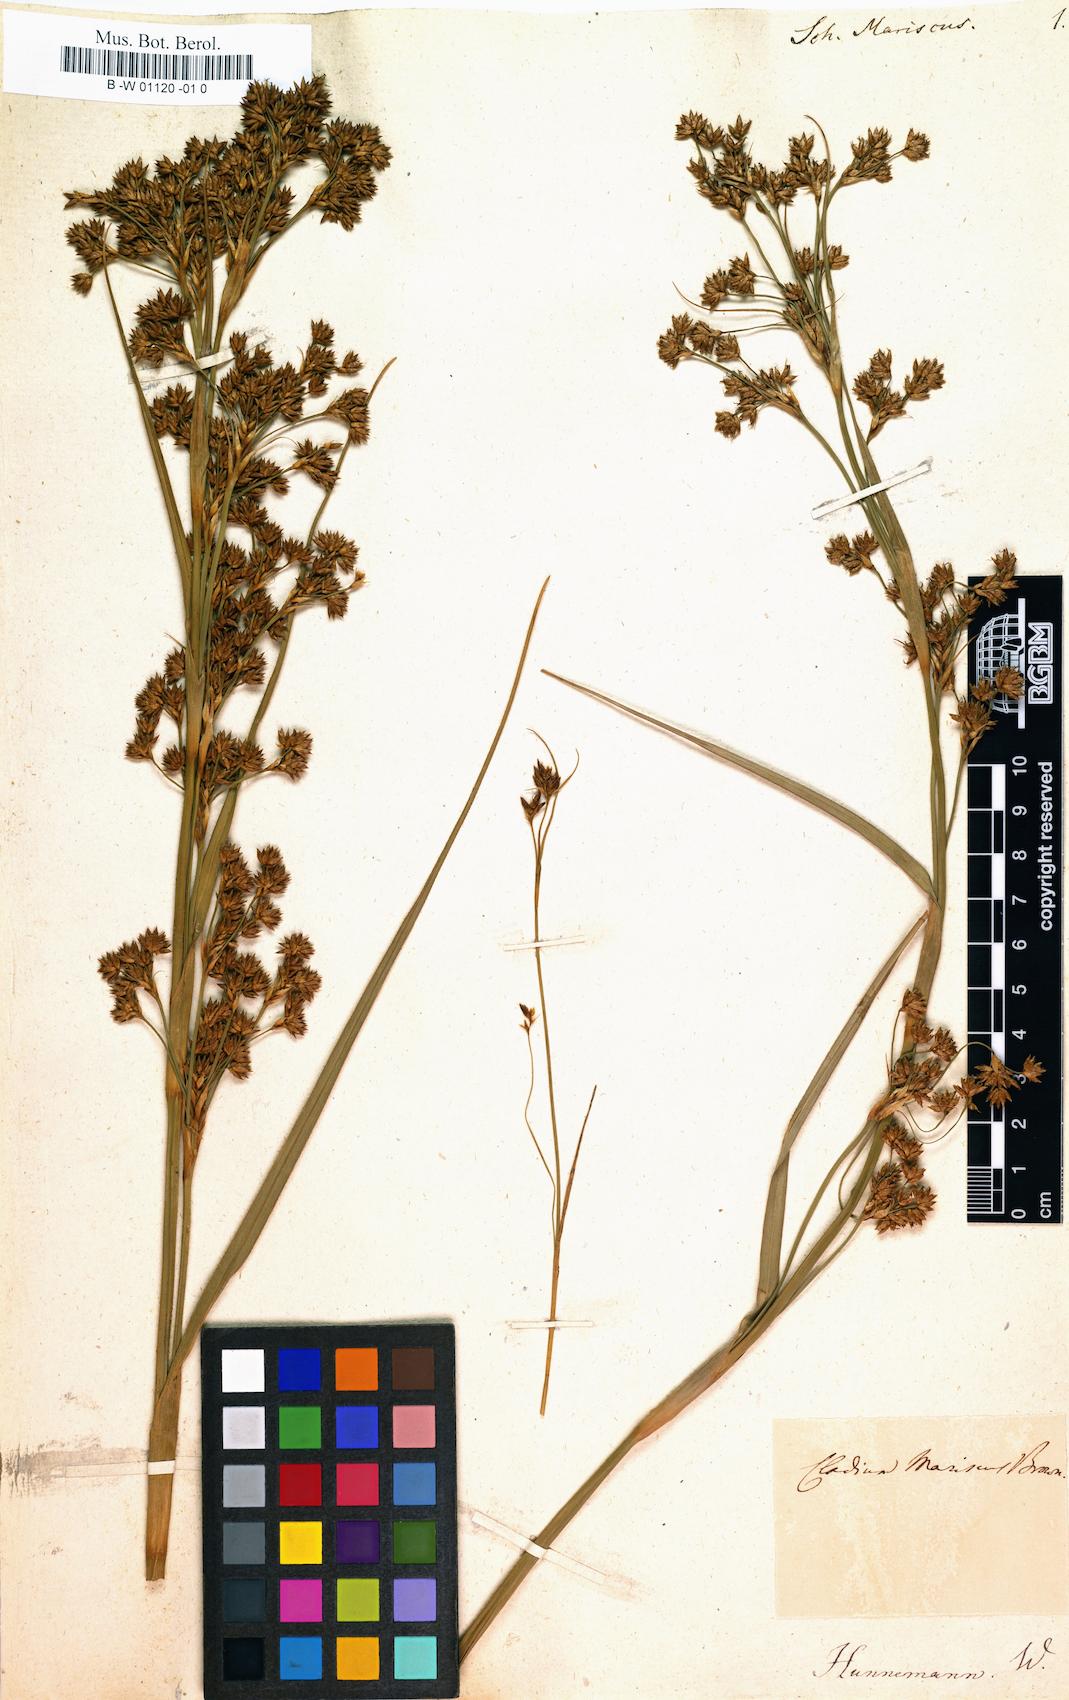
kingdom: Plantae
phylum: Tracheophyta
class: Liliopsida
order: Poales
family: Cyperaceae
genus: Cladium
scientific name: Cladium mariscus
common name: Great fen-sedge
